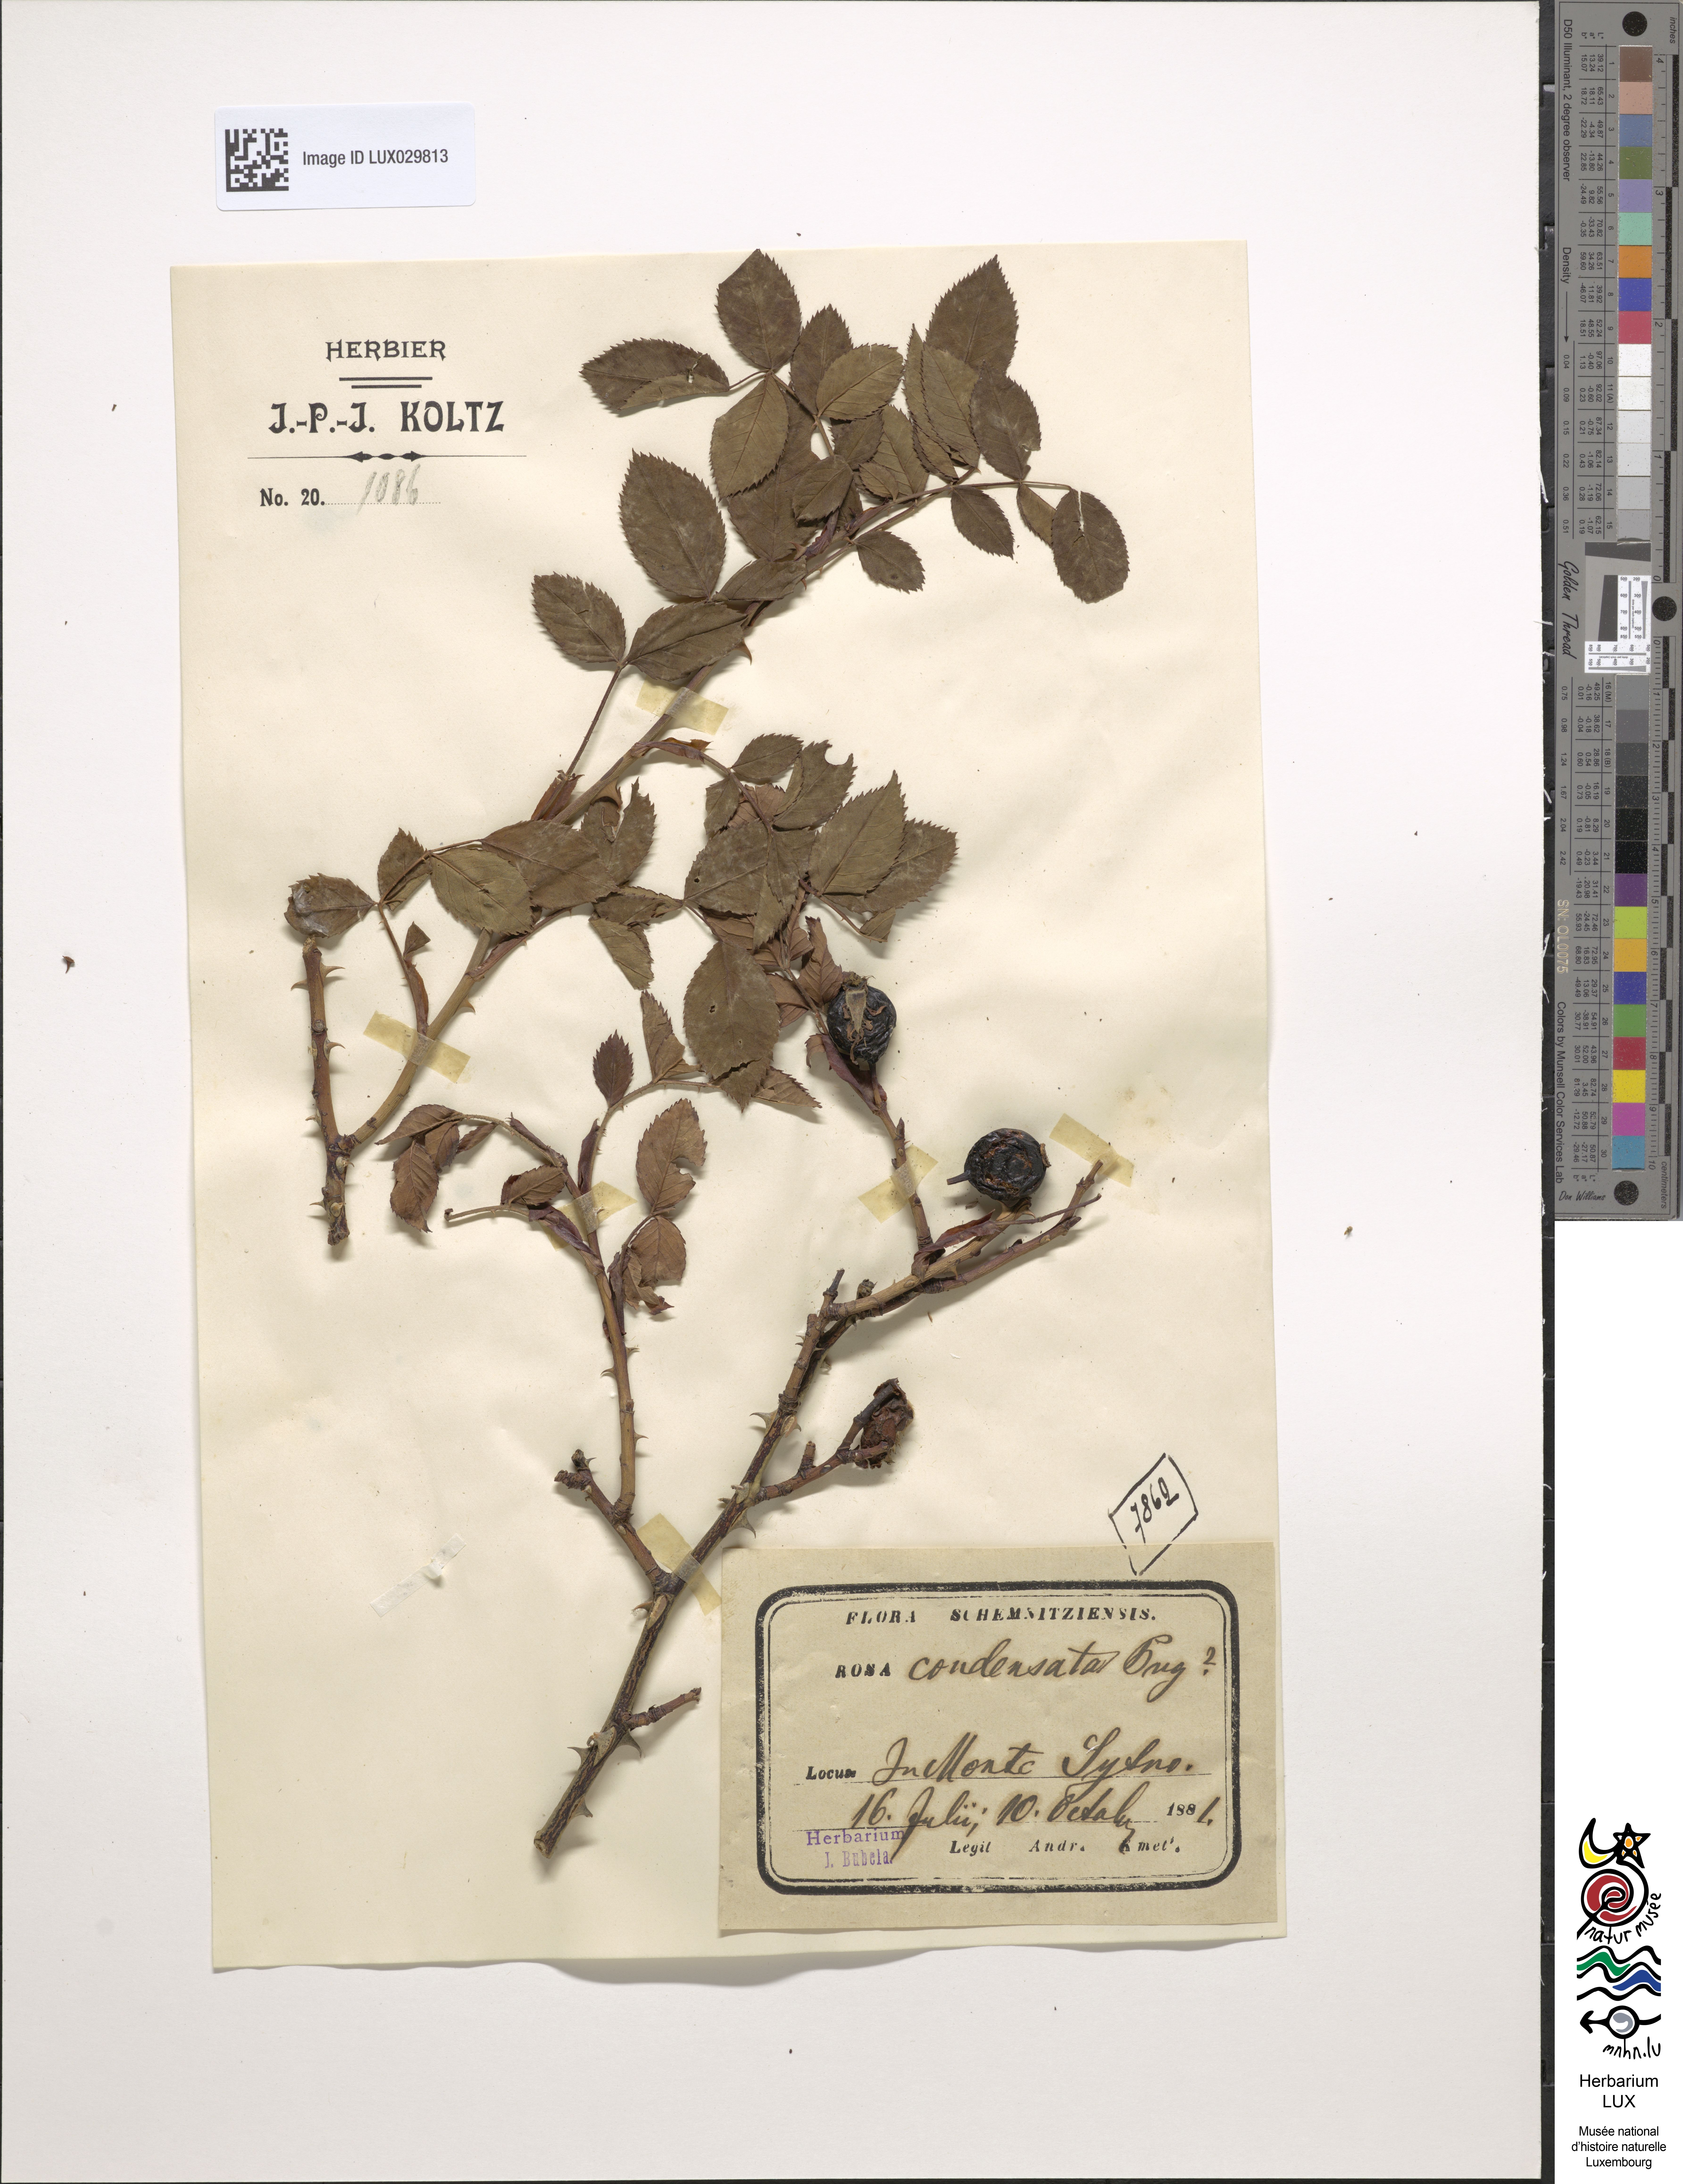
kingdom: Plantae
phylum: Tracheophyta
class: Magnoliopsida
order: Rosales
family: Rosaceae
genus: Rosa
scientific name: Rosa canina
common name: Dog rose
